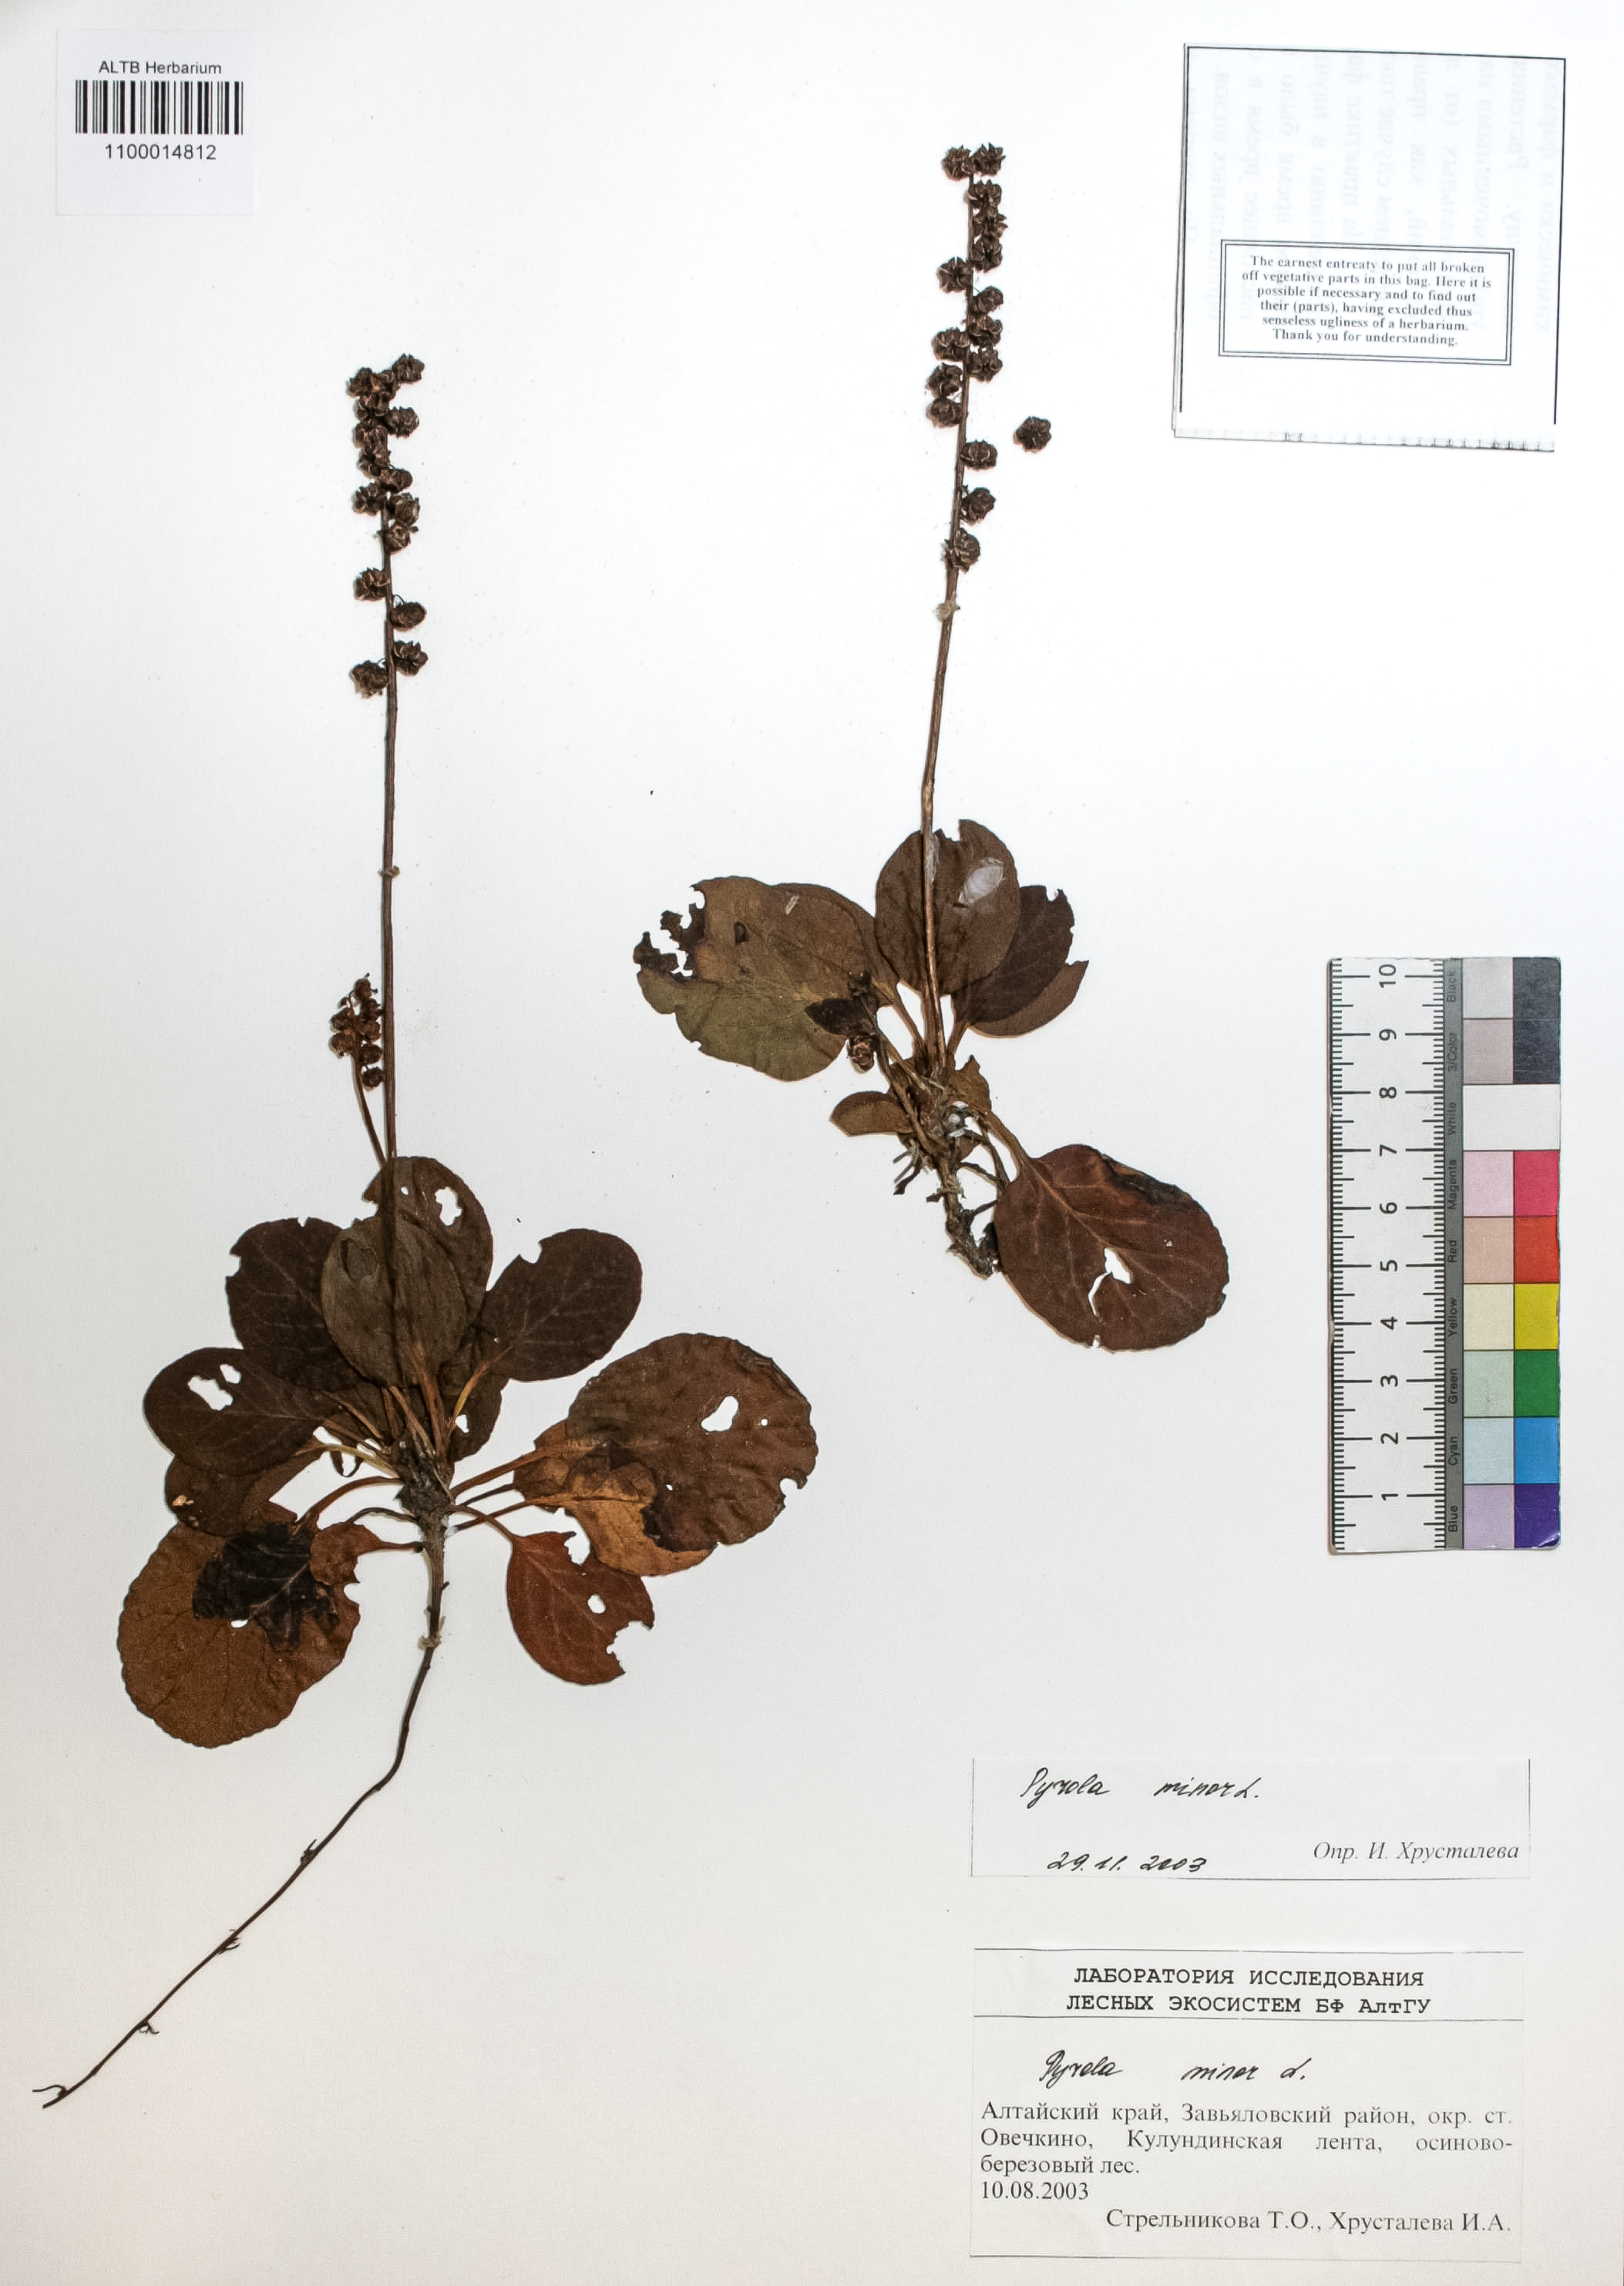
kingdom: Plantae
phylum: Tracheophyta
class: Magnoliopsida
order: Ericales
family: Ericaceae
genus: Pyrola
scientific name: Pyrola minor
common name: Common wintergreen
